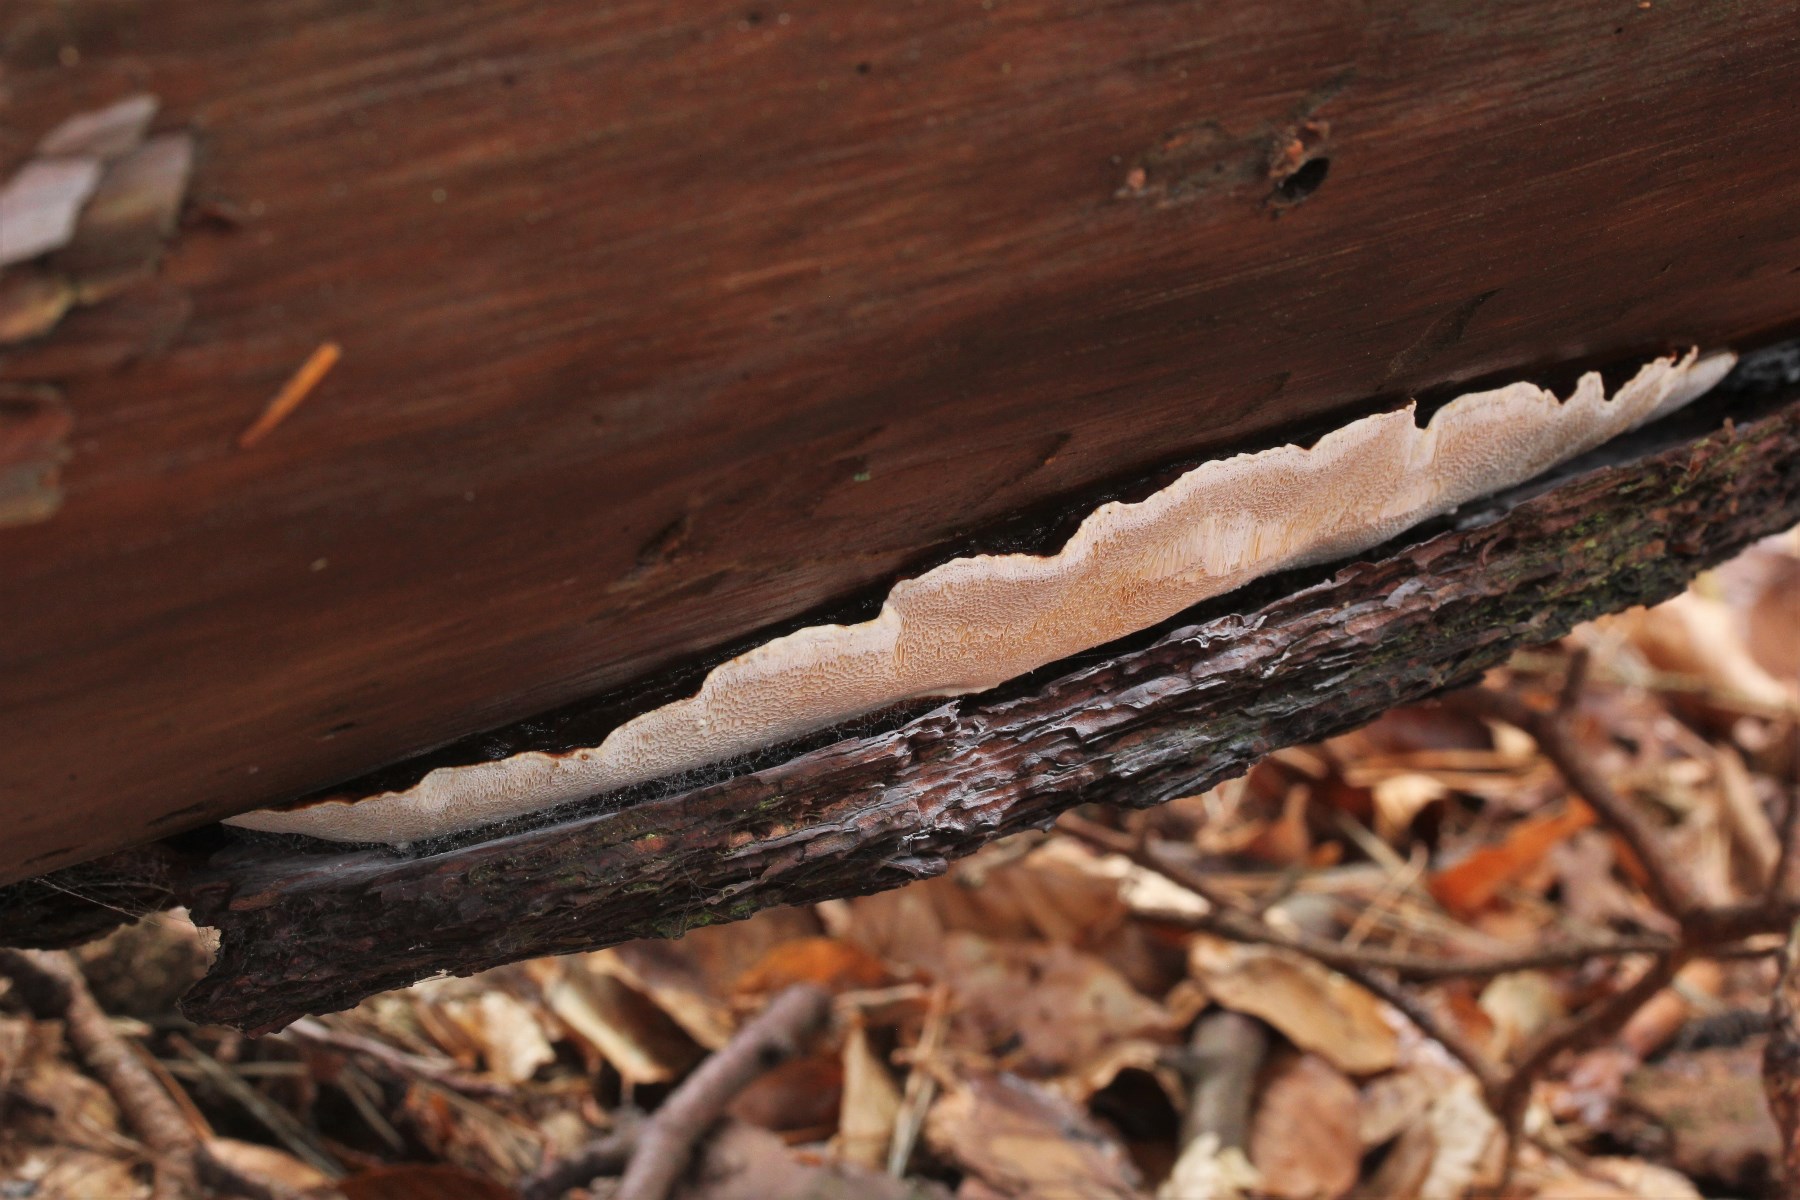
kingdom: Fungi
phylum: Basidiomycota
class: Agaricomycetes
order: Polyporales
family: Fomitopsidaceae
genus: Fomitopsis
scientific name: Fomitopsis pinicola
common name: randbæltet hovporesvamp
